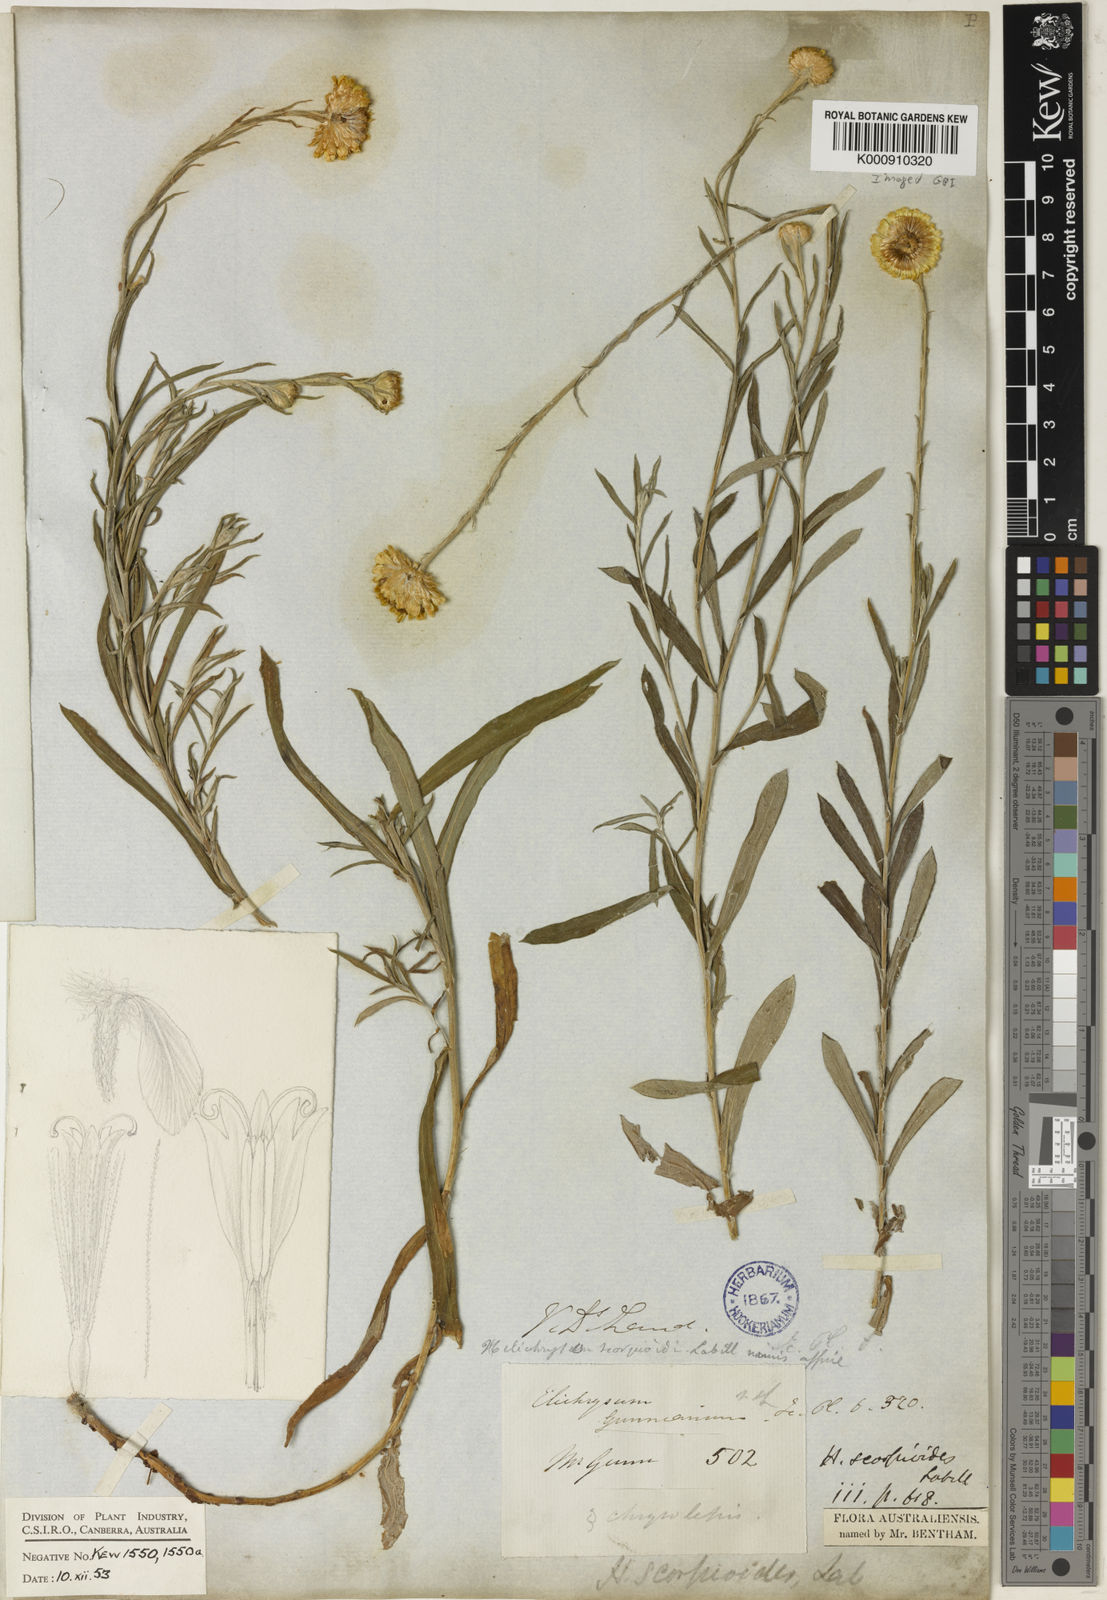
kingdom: Plantae
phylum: Tracheophyta
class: Magnoliopsida
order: Asterales
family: Asteraceae
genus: Coronidium
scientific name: Coronidium scorpioides
